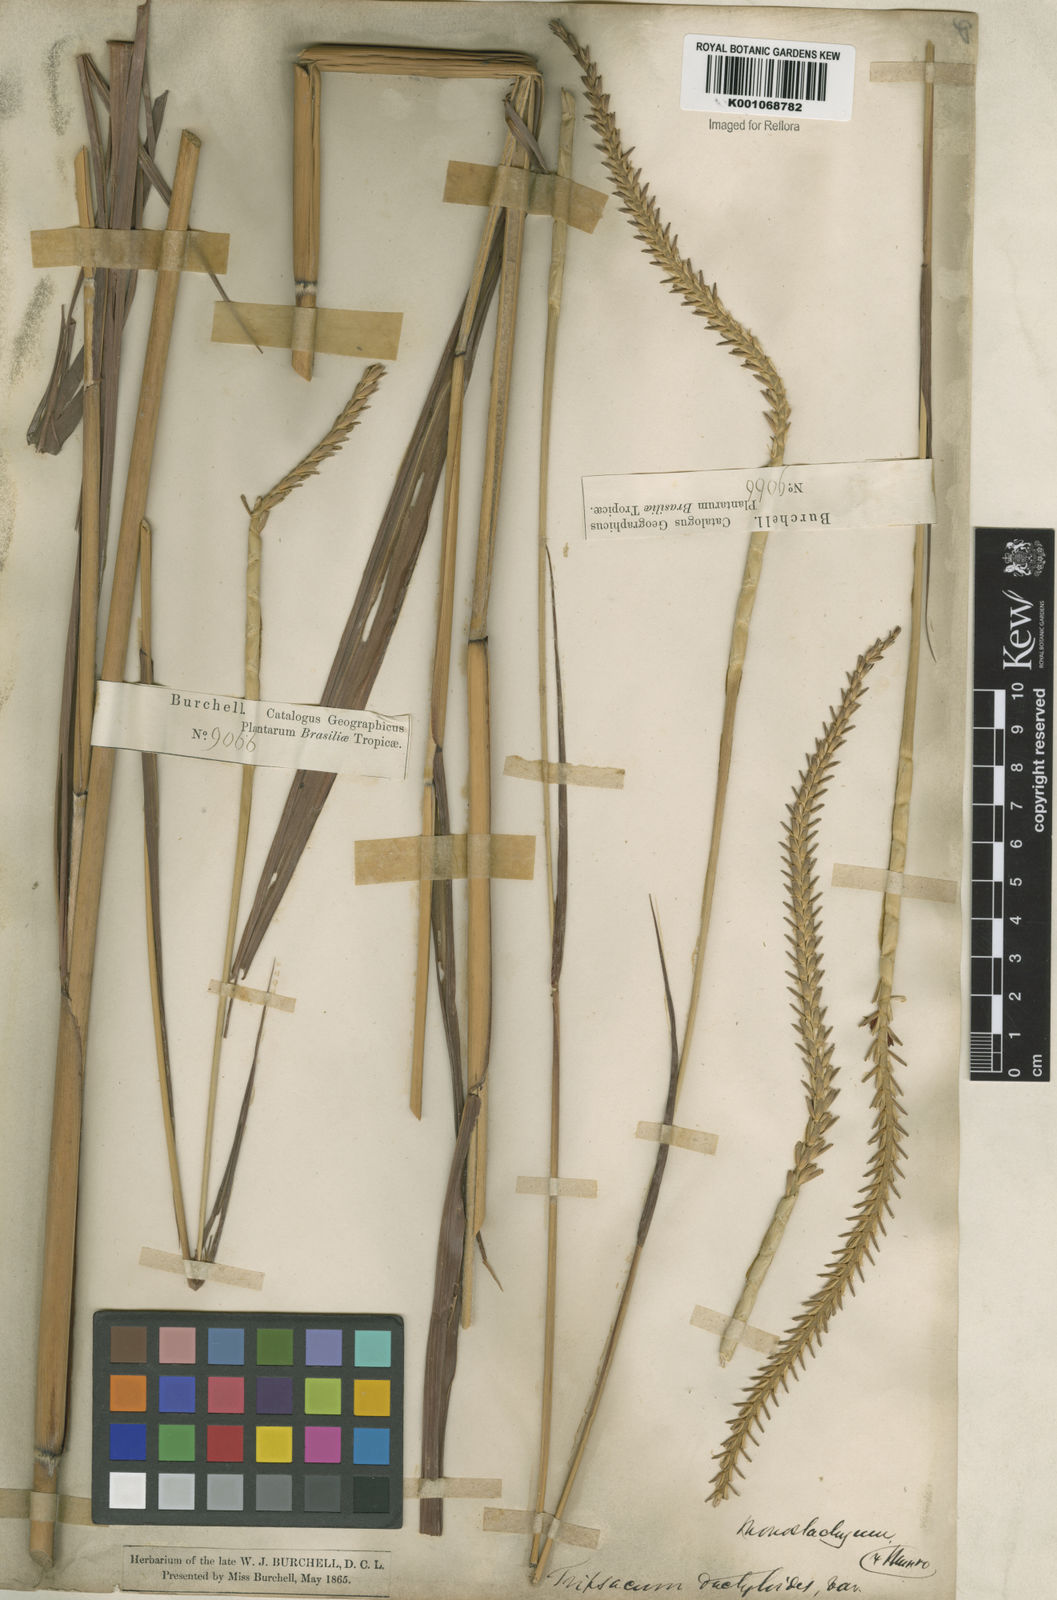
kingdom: Plantae
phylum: Tracheophyta
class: Liliopsida
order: Poales
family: Poaceae
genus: Tripsacum
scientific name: Tripsacum australe
